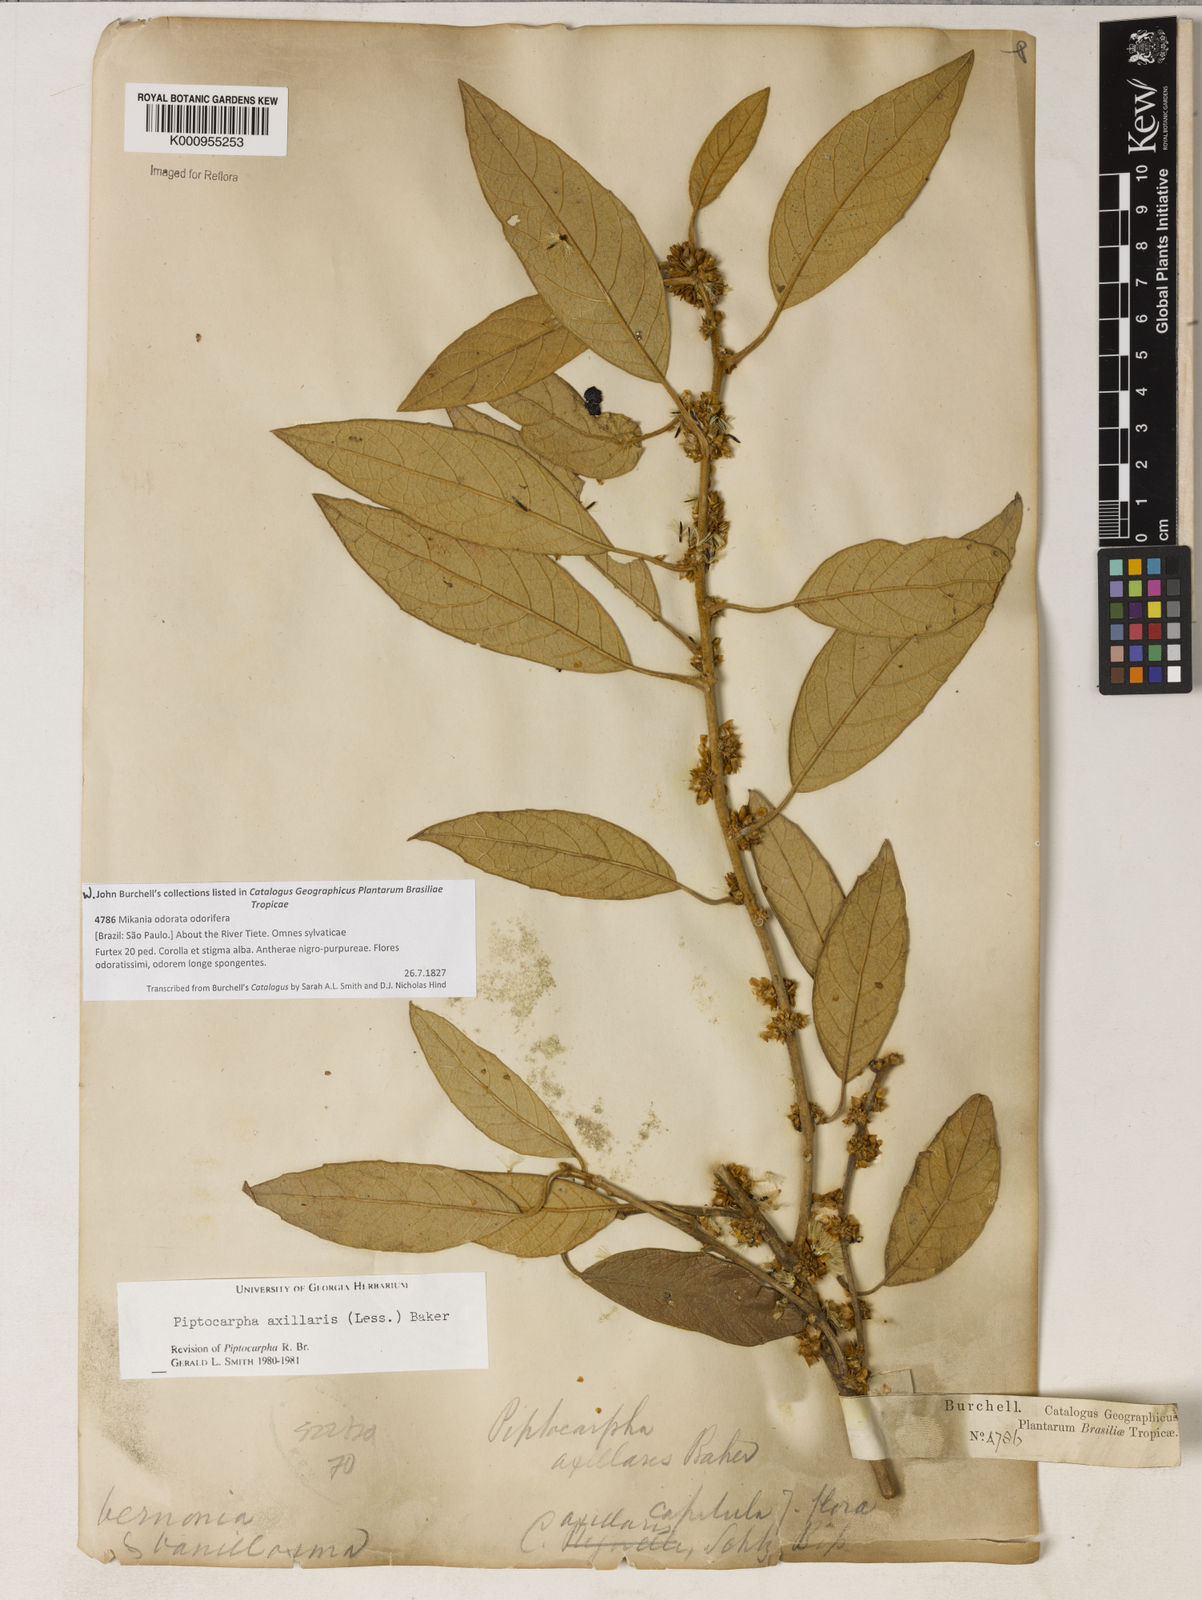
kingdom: Plantae
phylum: Tracheophyta
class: Magnoliopsida
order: Asterales
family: Asteraceae
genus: Piptocarpha
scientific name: Piptocarpha axillaris
